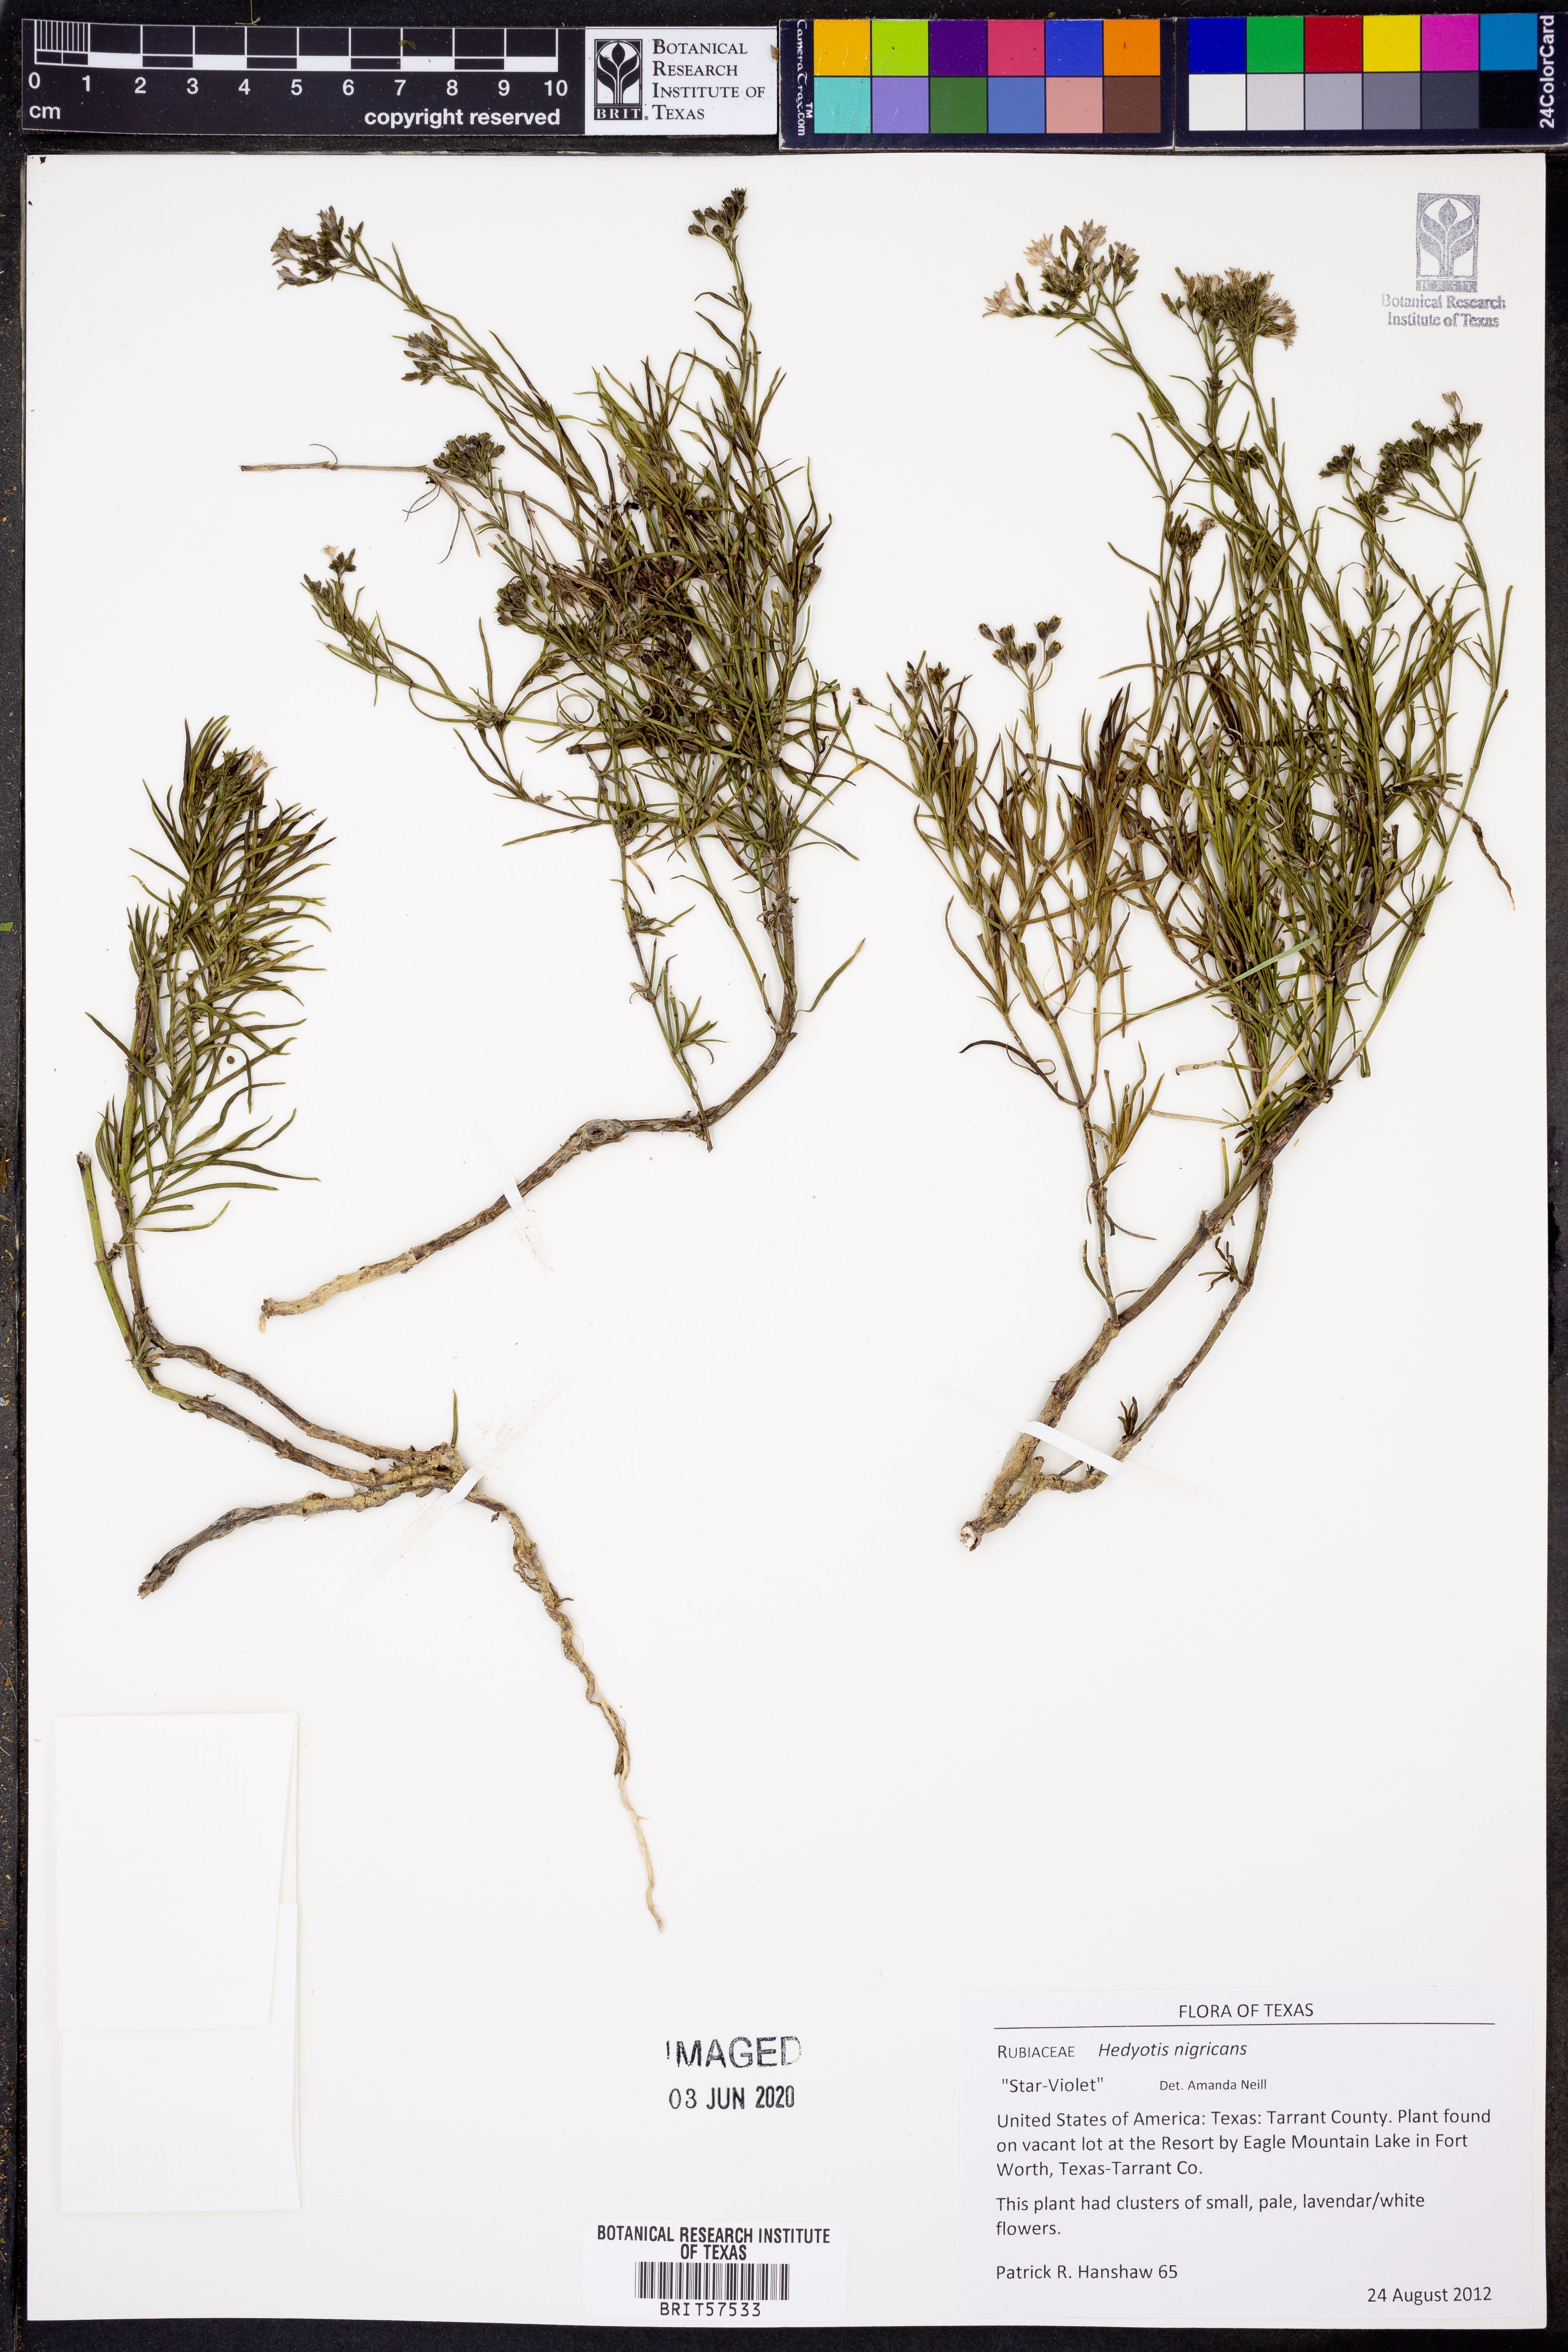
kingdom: Plantae
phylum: Tracheophyta
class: Magnoliopsida
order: Gentianales
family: Rubiaceae
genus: Stenaria
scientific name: Stenaria nigricans
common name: Diamondflowers
